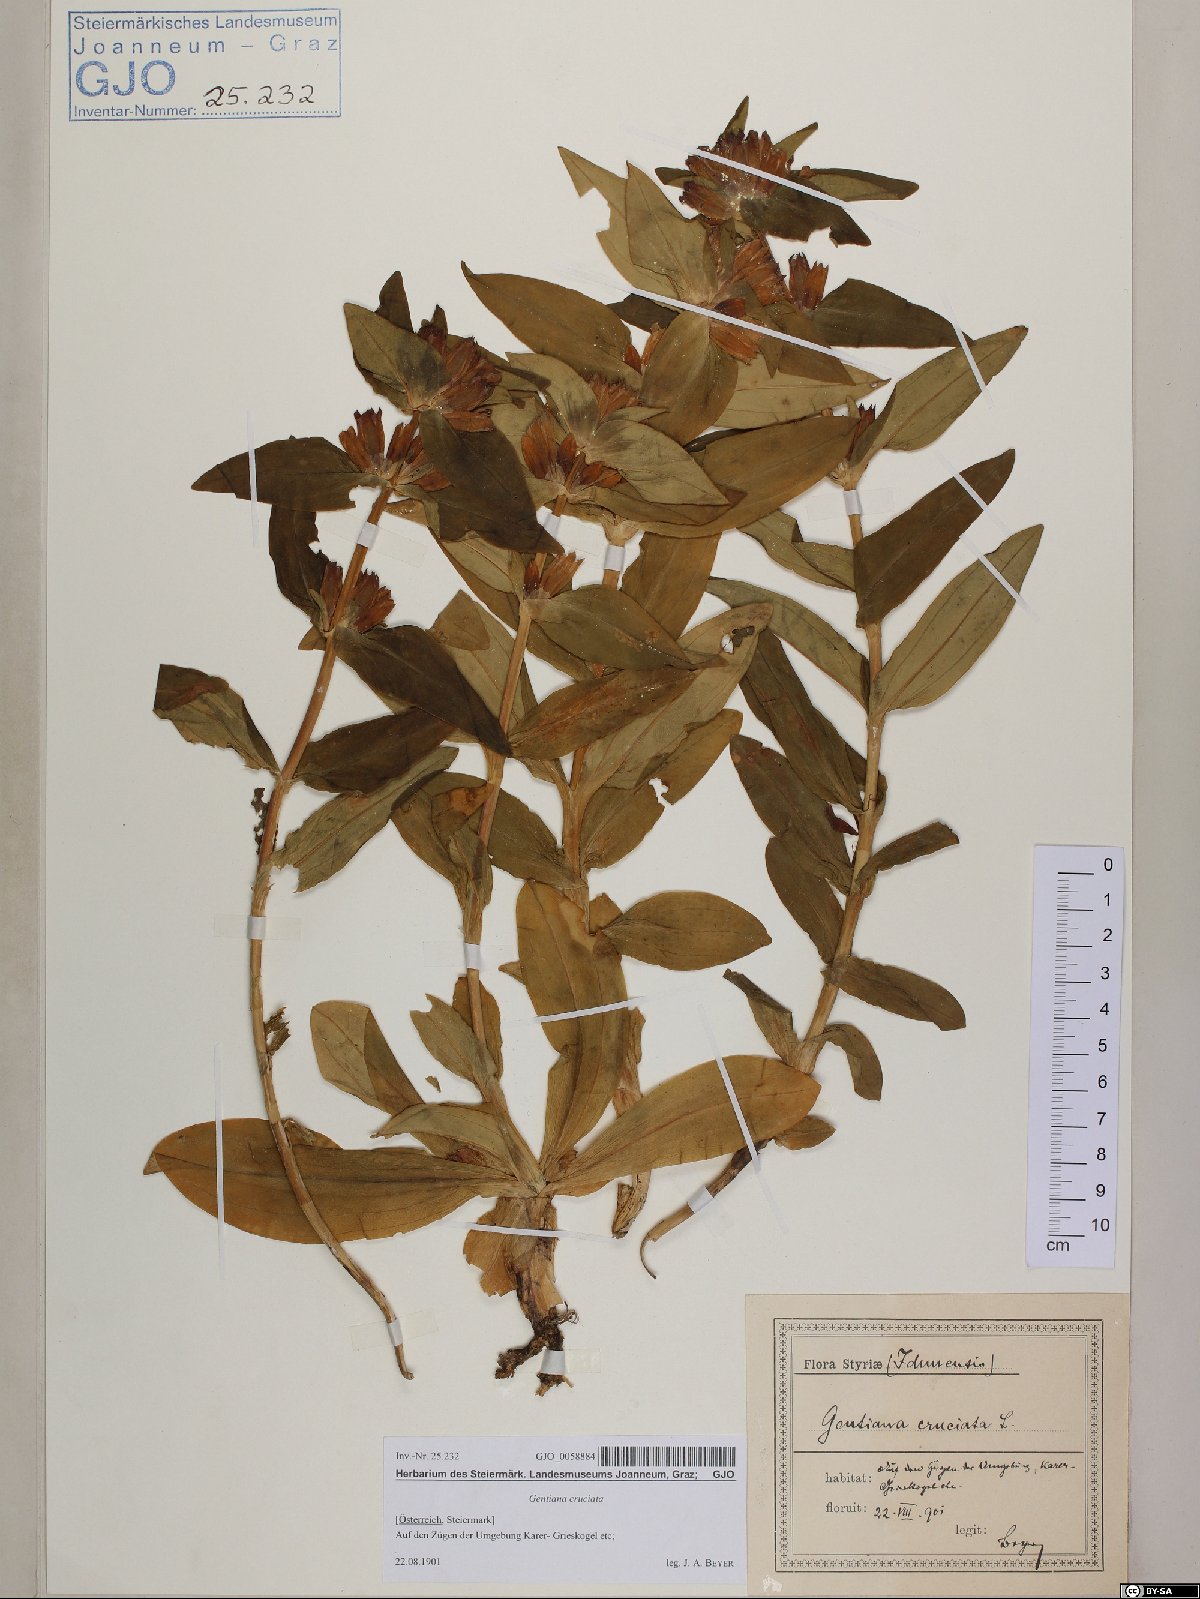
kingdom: Plantae
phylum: Tracheophyta
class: Magnoliopsida
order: Gentianales
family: Gentianaceae
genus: Gentiana
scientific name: Gentiana cruciata
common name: Cross gentian
